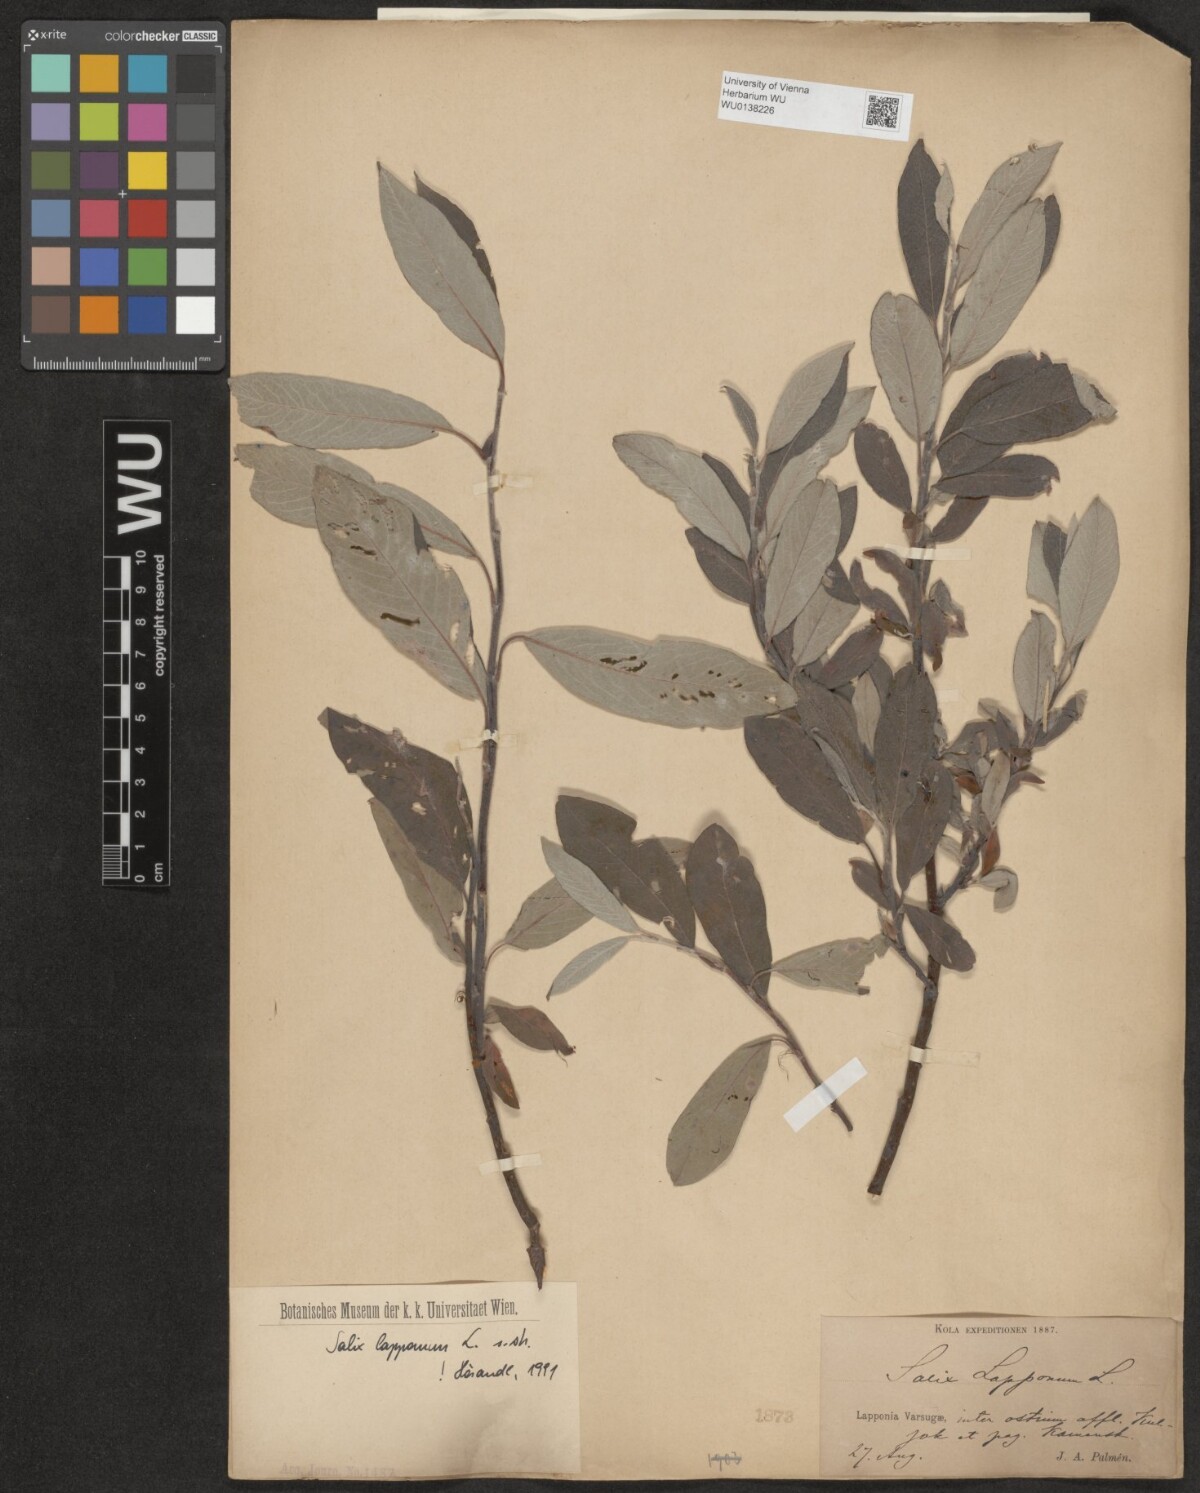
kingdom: Plantae
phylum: Tracheophyta
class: Magnoliopsida
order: Malpighiales
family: Salicaceae
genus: Salix
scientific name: Salix lapponum
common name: Downy willow
